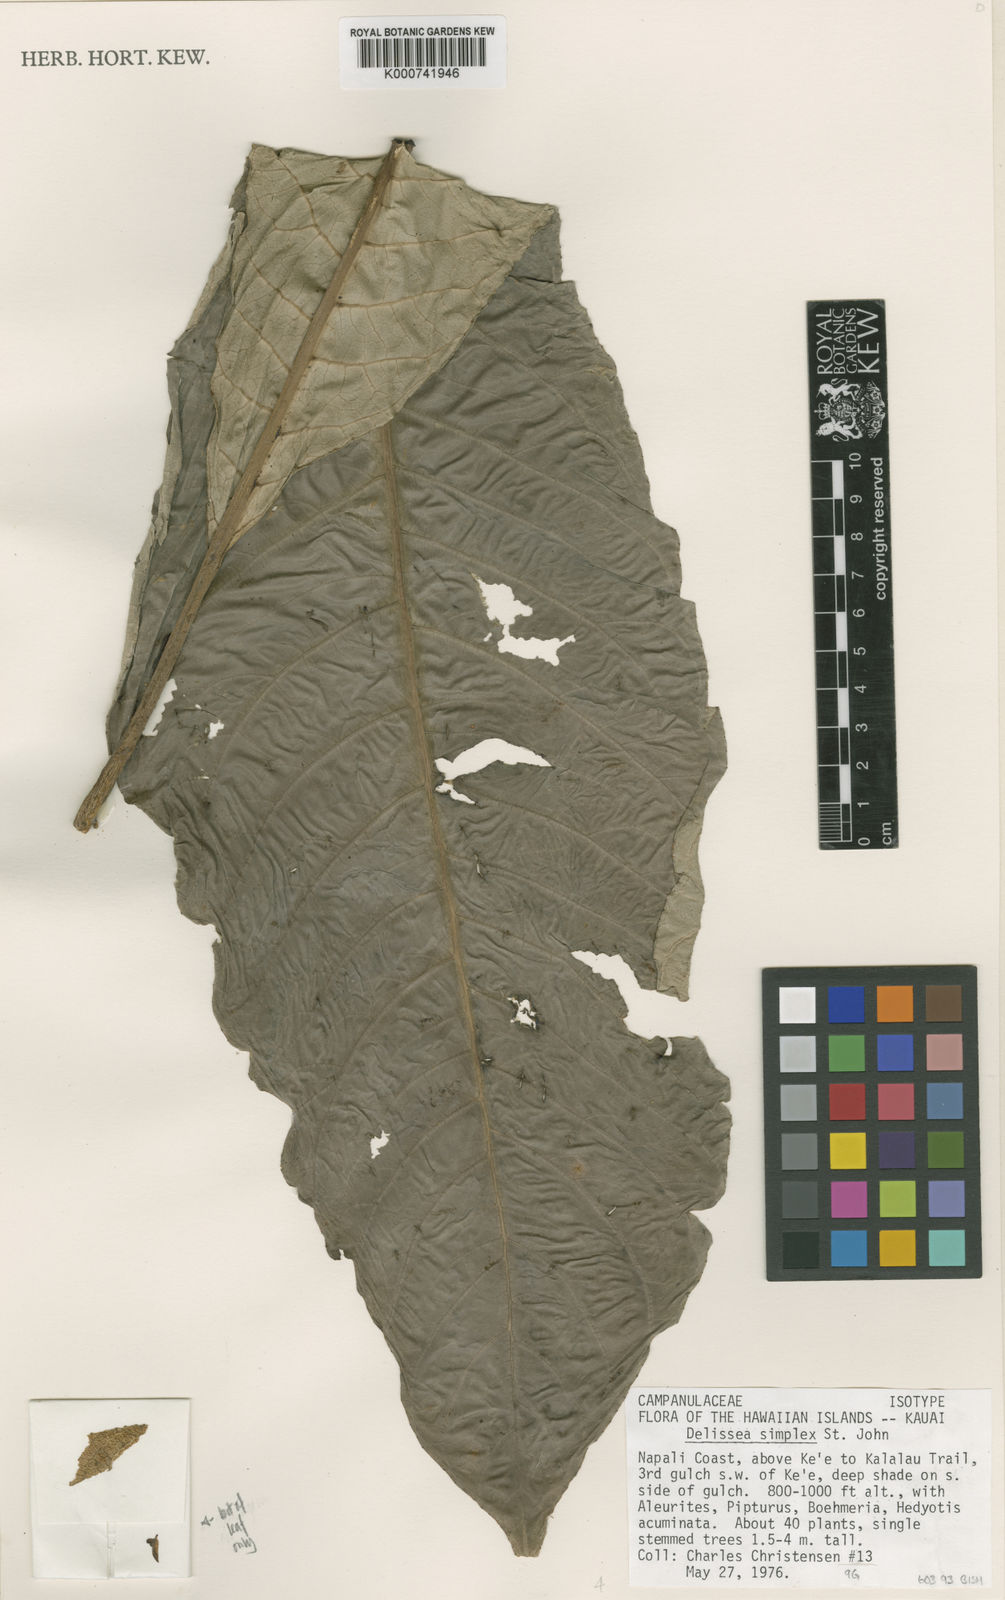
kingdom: Plantae
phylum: Tracheophyta
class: Magnoliopsida
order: Asterales
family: Campanulaceae
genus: Cyanea
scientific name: Cyanea hirtella
